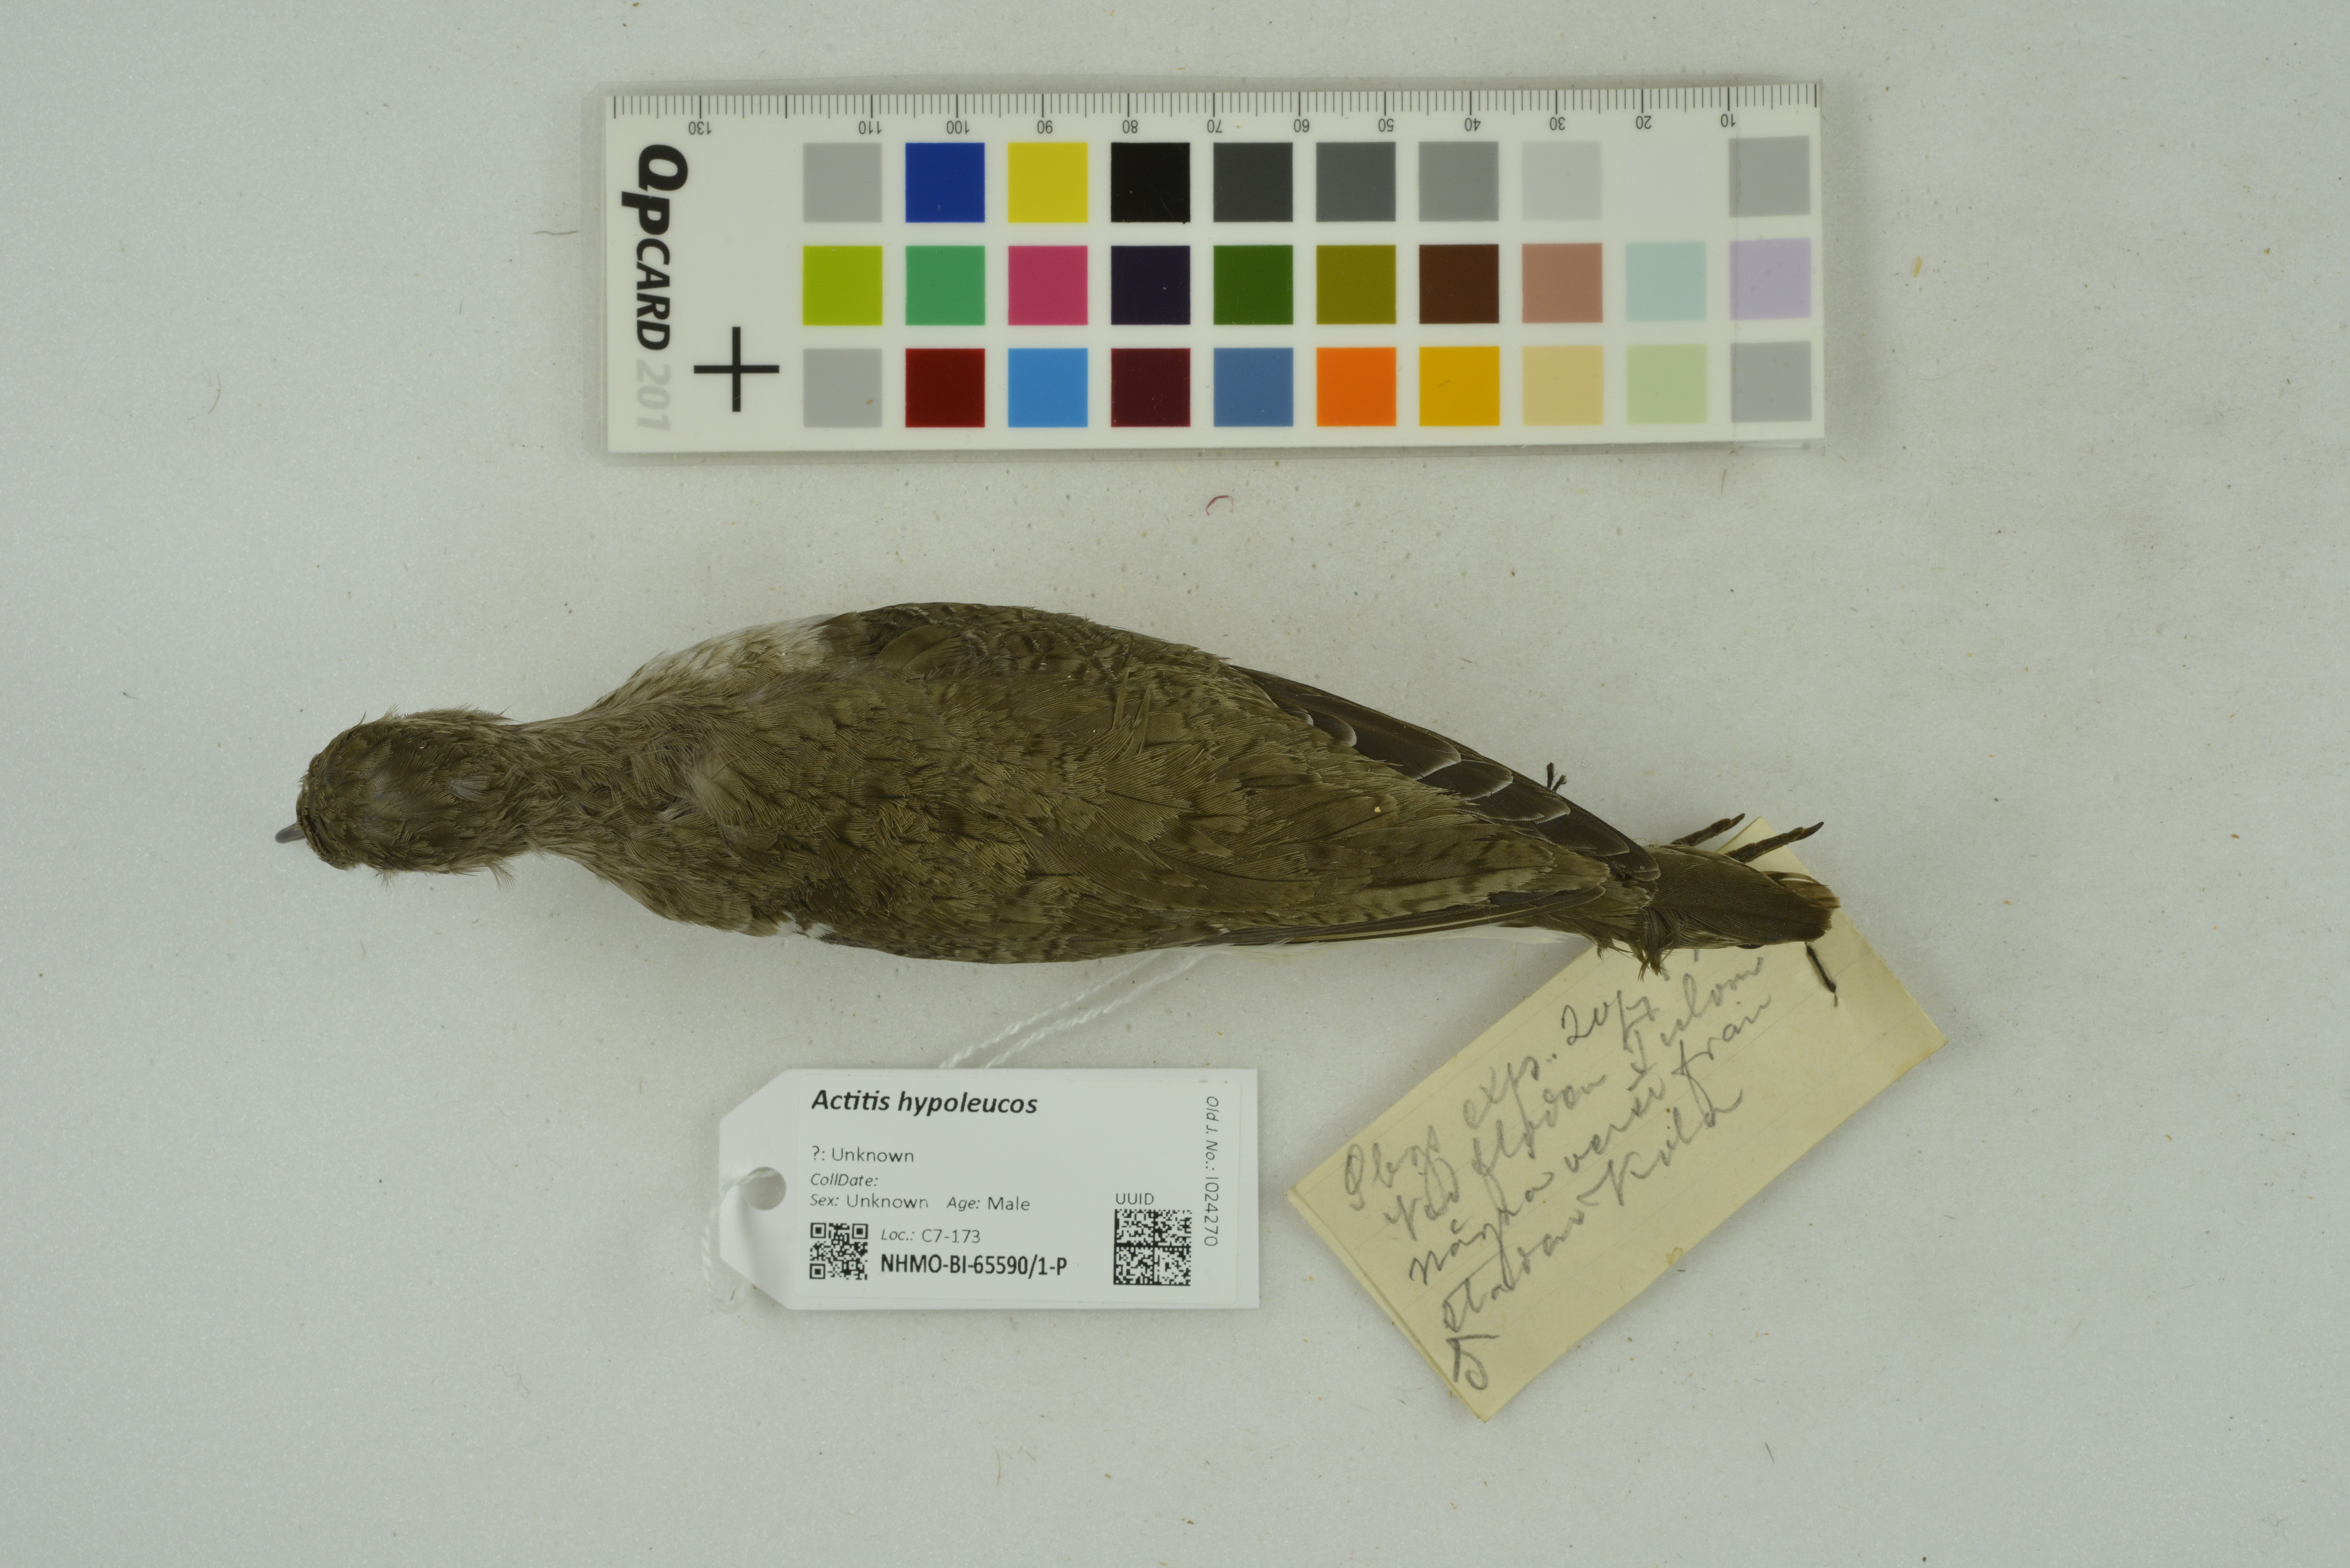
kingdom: Animalia
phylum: Chordata
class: Aves
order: Charadriiformes
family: Scolopacidae
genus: Actitis
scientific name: Actitis hypoleucos
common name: Common sandpiper
